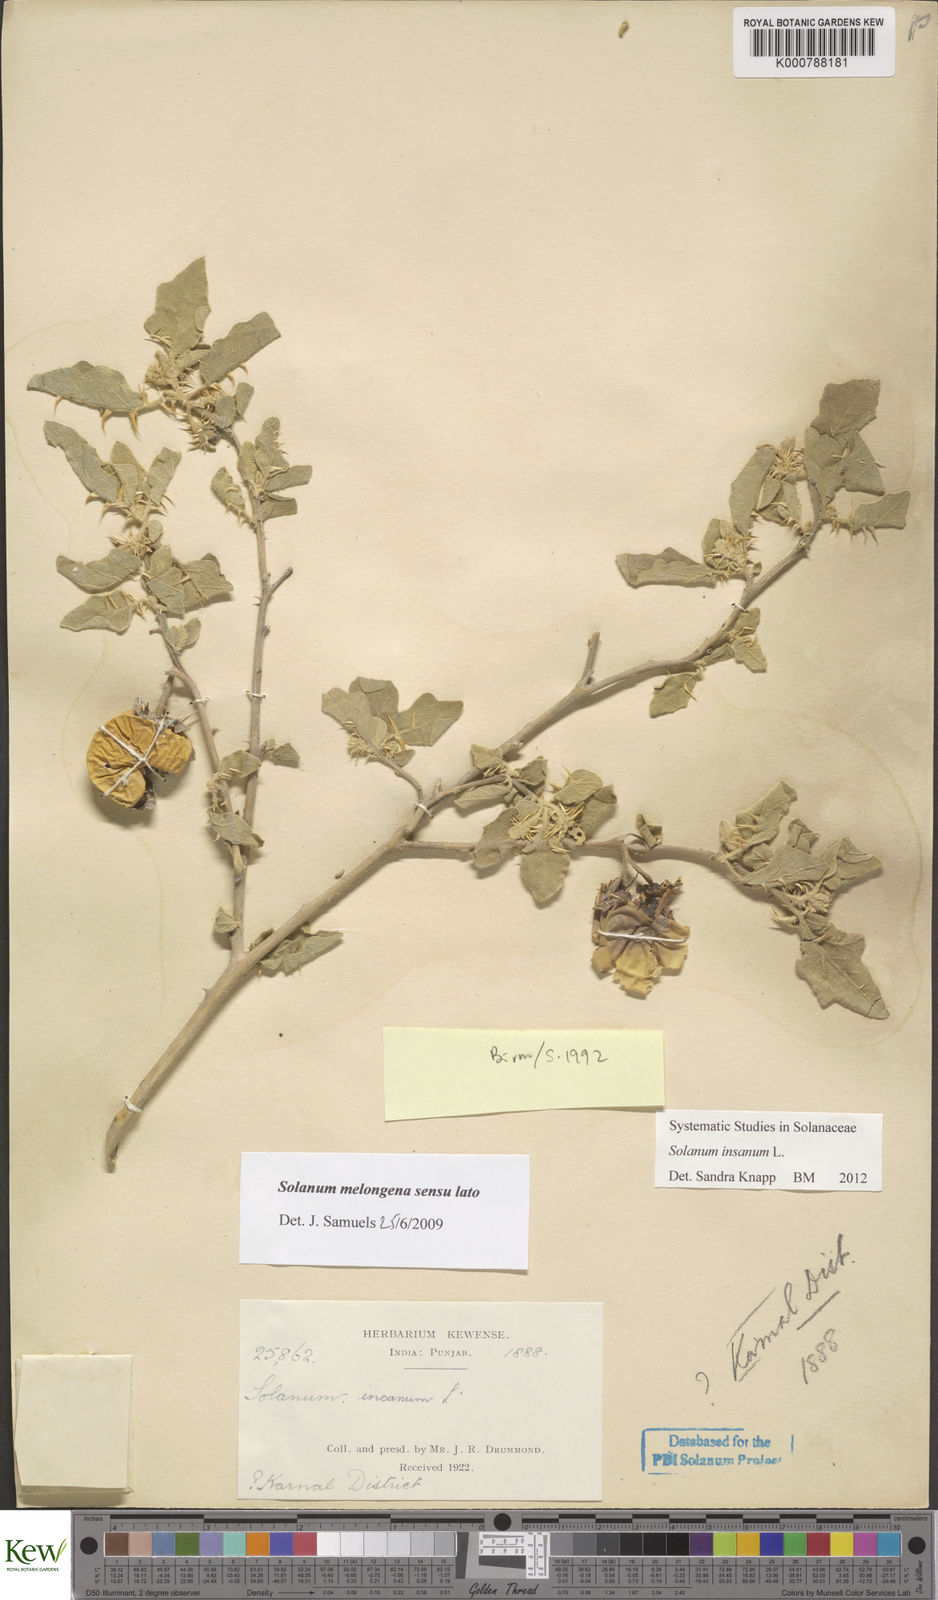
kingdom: Plantae
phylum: Tracheophyta
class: Magnoliopsida
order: Solanales
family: Solanaceae
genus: Solanum
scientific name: Solanum insanum
